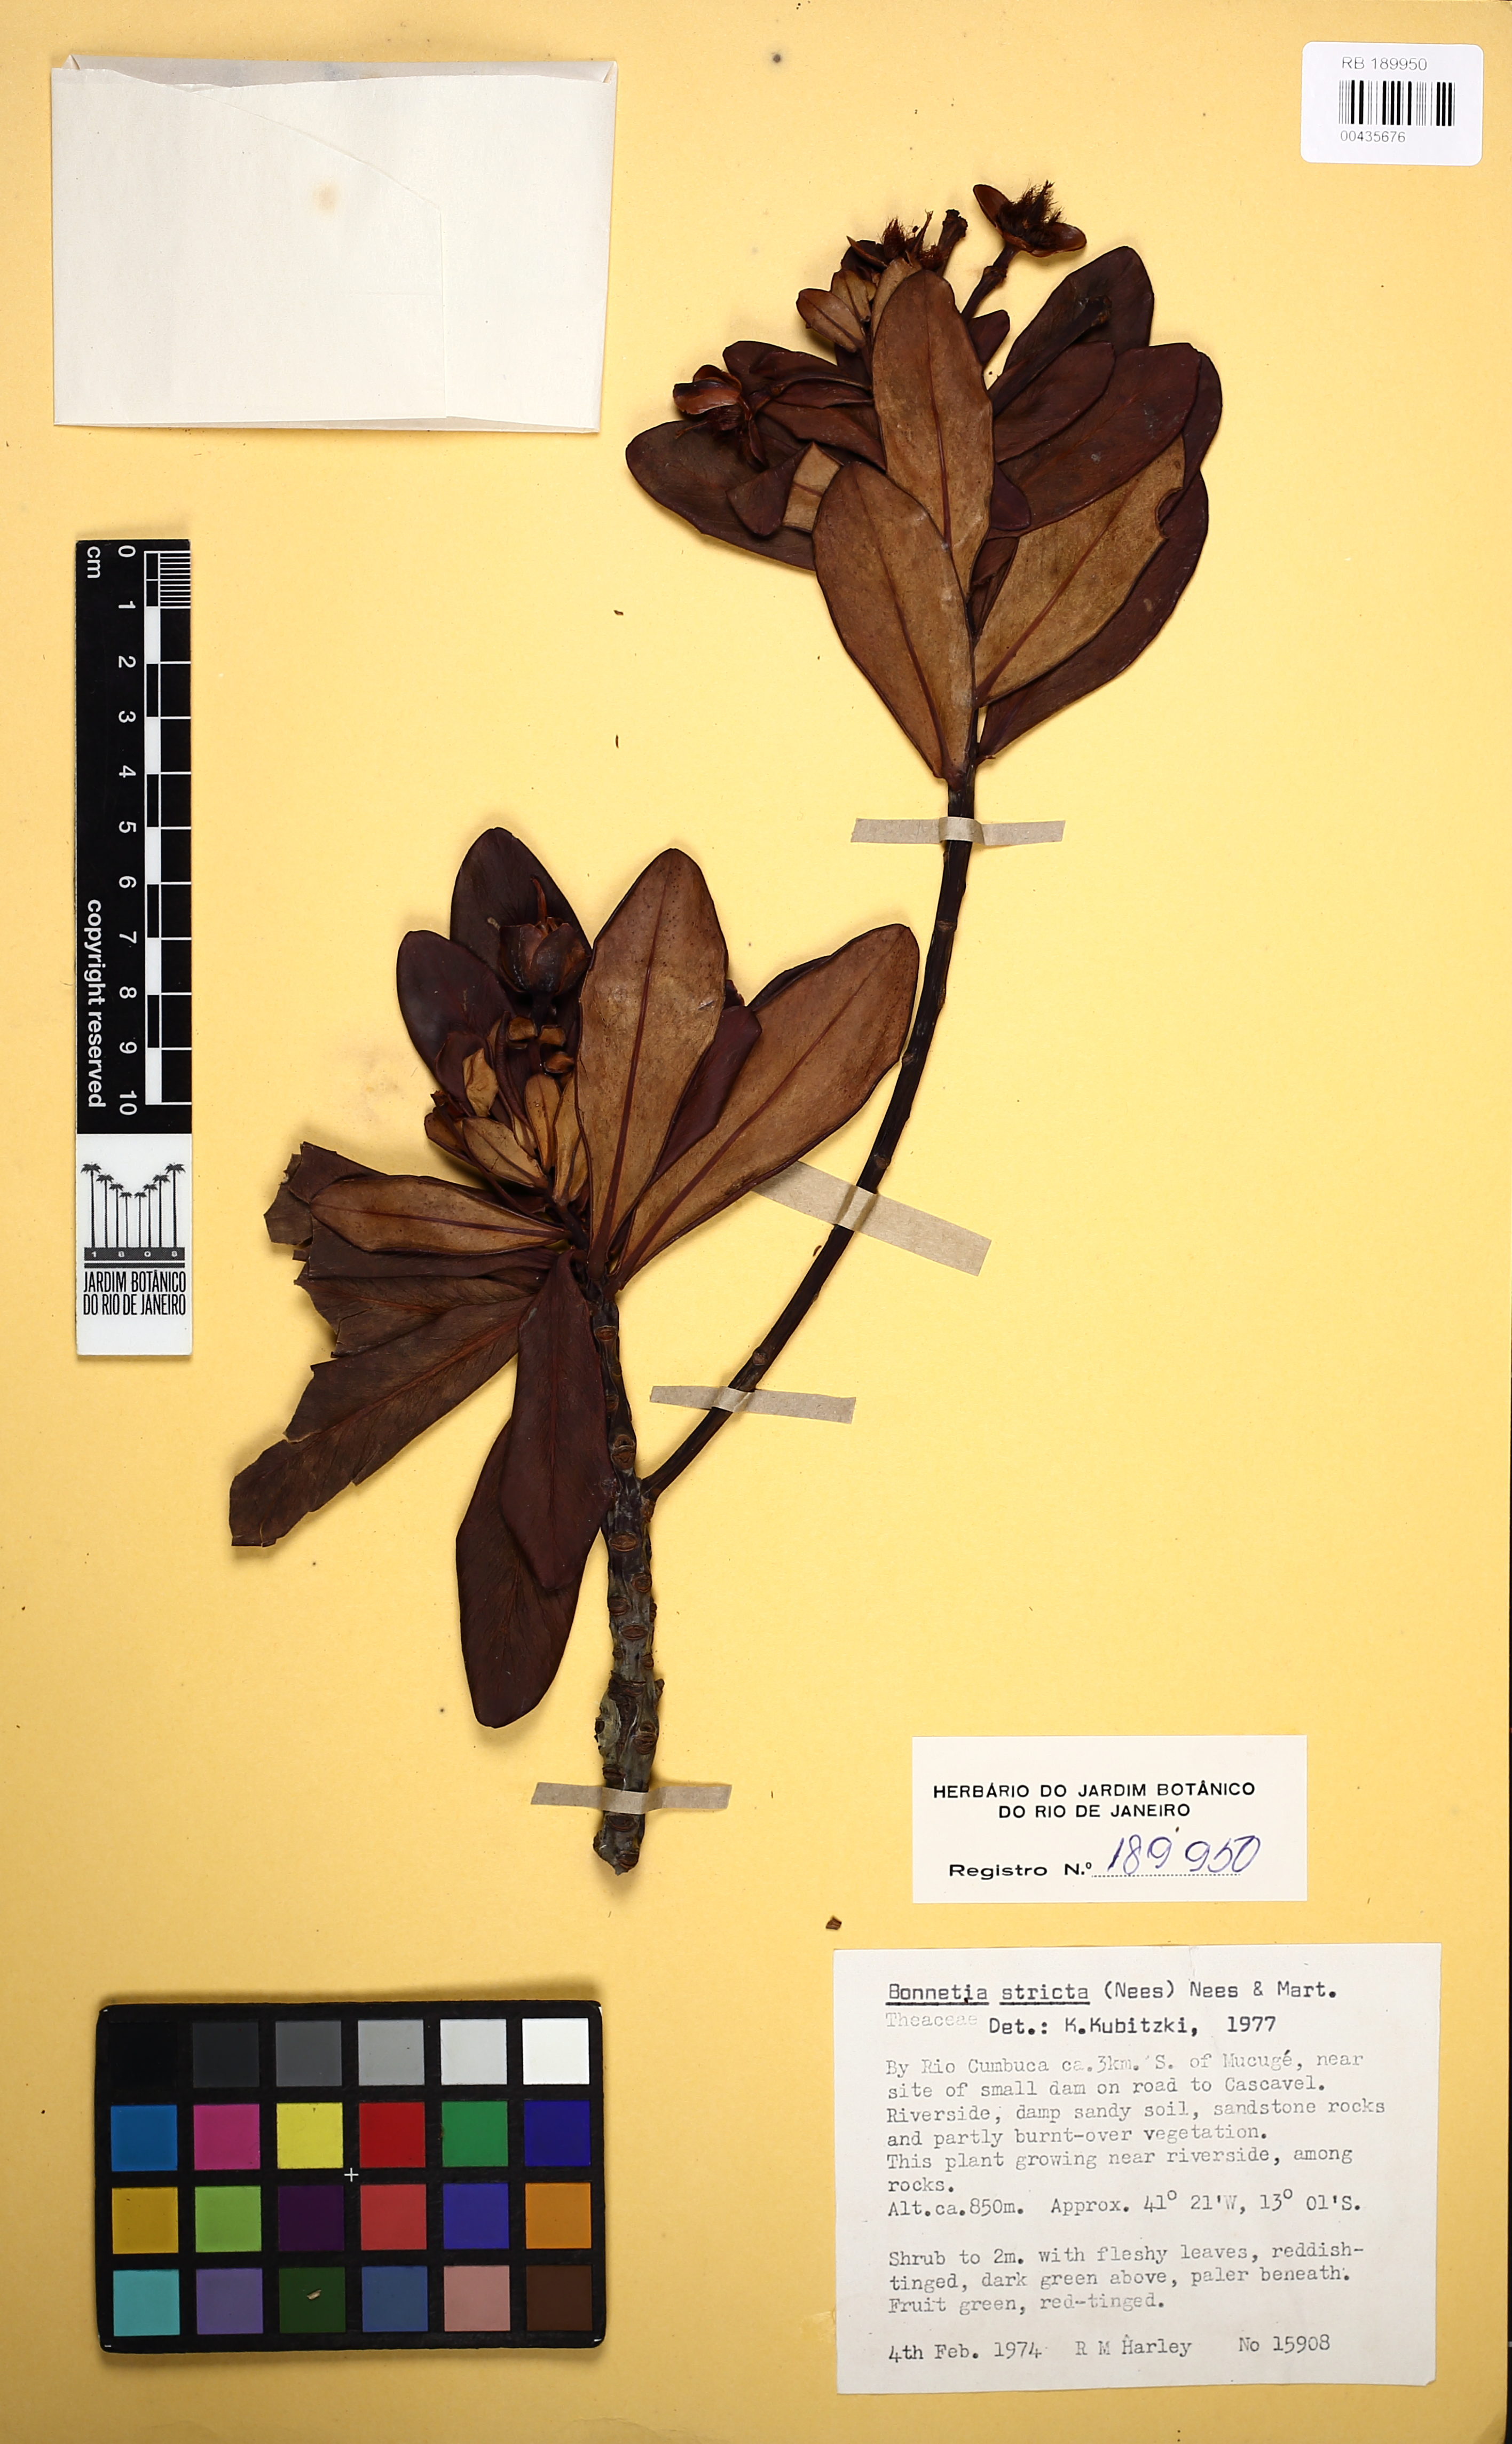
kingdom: Plantae
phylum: Tracheophyta
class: Magnoliopsida
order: Malpighiales
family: Bonnetiaceae
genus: Bonnetia
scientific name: Bonnetia stricta
